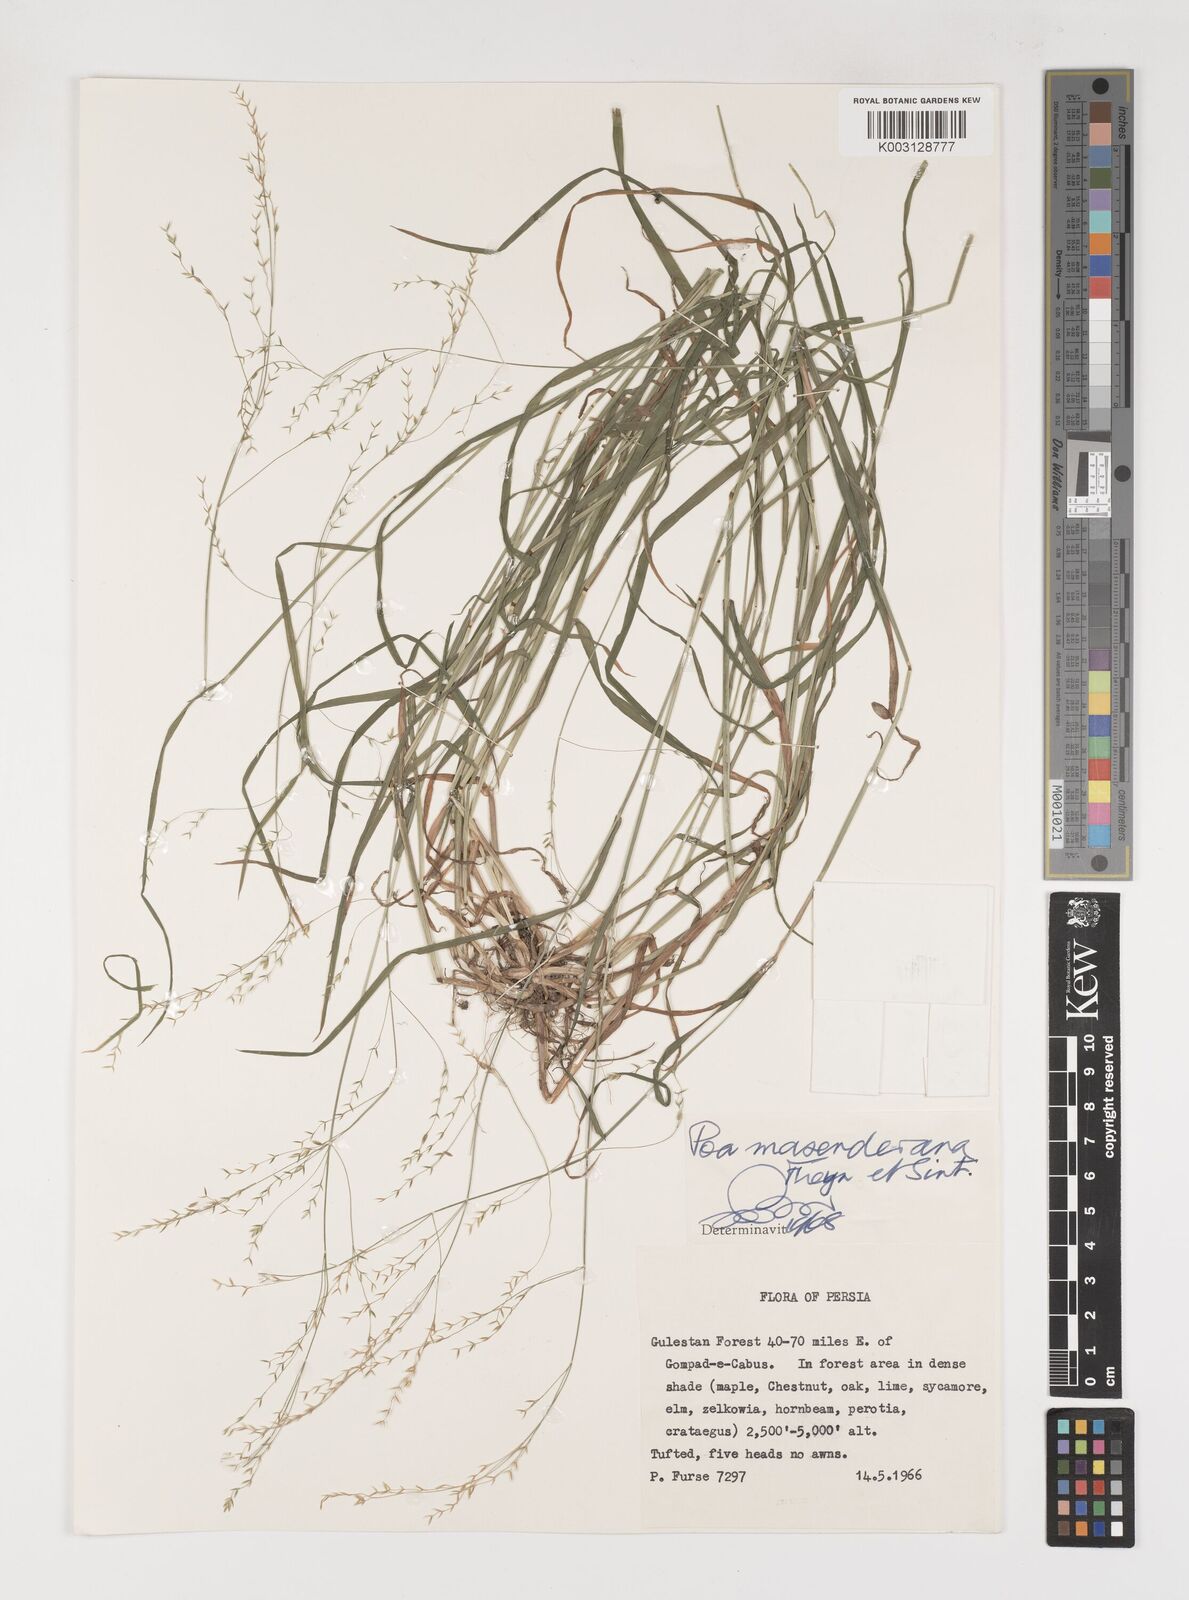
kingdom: Plantae
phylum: Tracheophyta
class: Liliopsida
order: Poales
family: Poaceae
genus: Poa
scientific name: Poa masenderana
